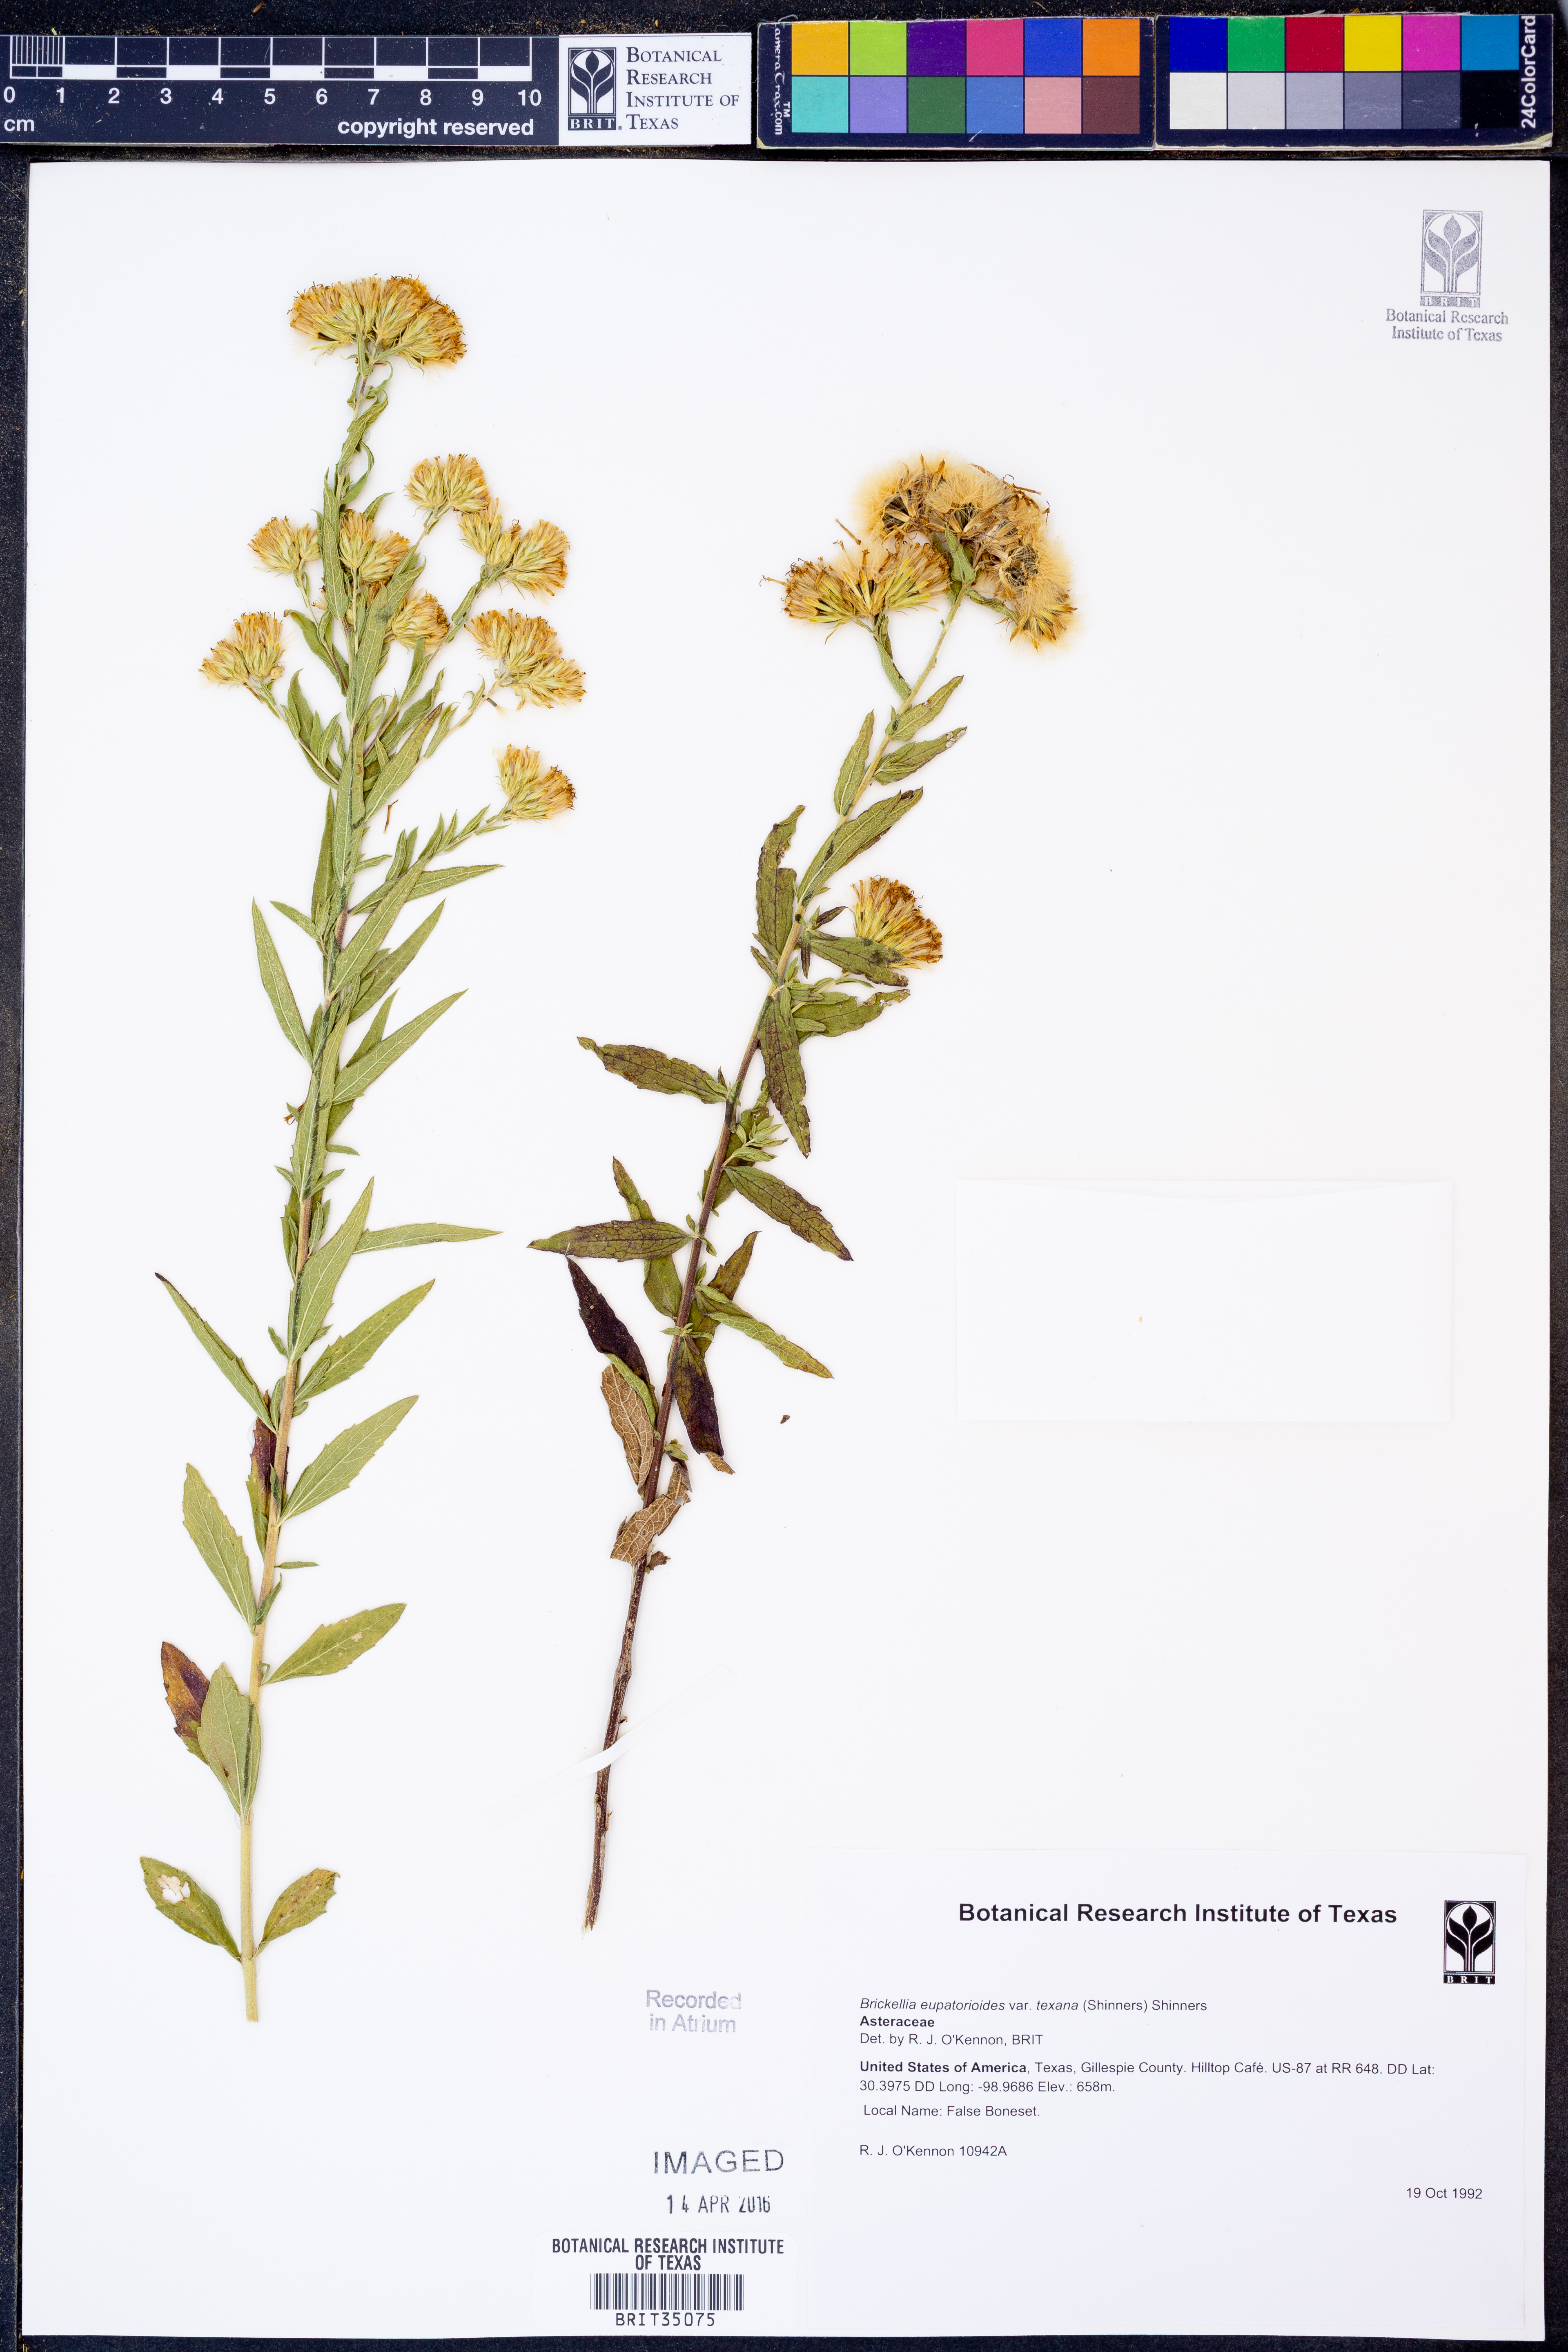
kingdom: Plantae
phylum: Tracheophyta
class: Magnoliopsida
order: Asterales
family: Asteraceae
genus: Brickellia
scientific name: Brickellia macranthra
